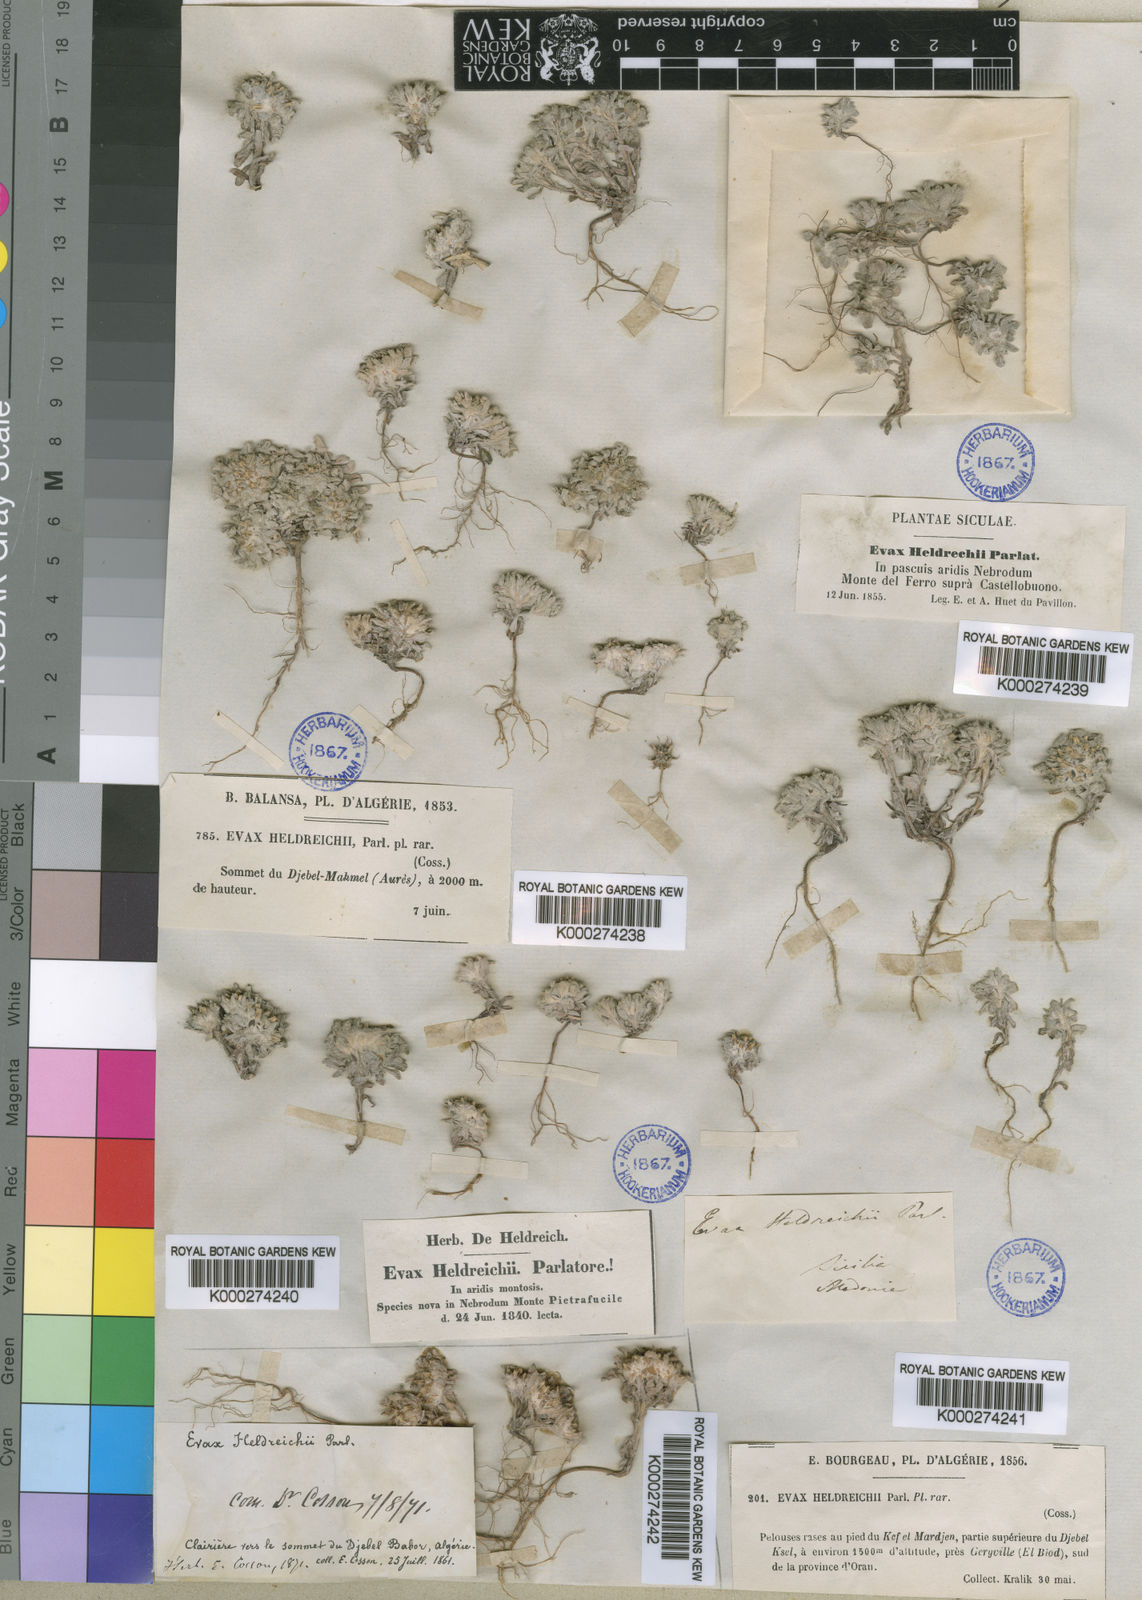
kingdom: Plantae
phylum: Tracheophyta
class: Magnoliopsida
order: Asterales
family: Asteraceae
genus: Filago
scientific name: Filago discolor
